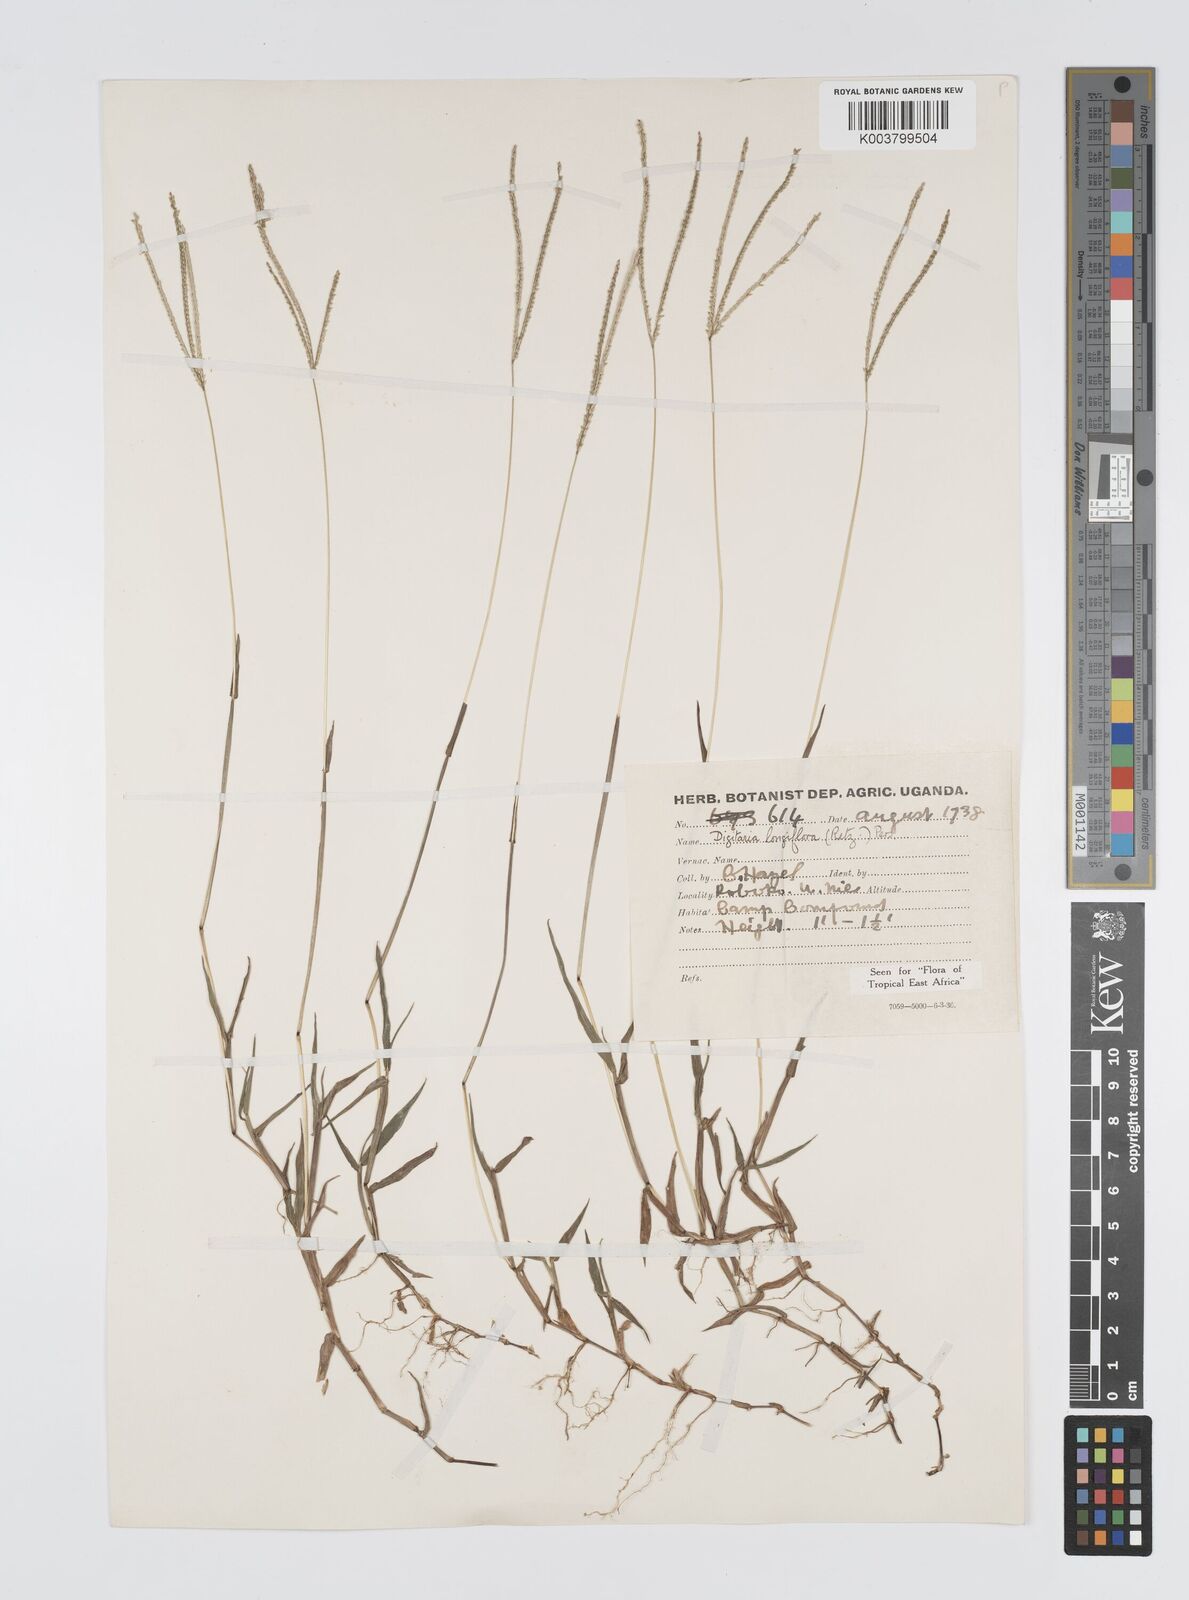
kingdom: Plantae
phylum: Tracheophyta
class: Liliopsida
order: Poales
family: Poaceae
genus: Digitaria
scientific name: Digitaria longiflora
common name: Wire crabgrass
